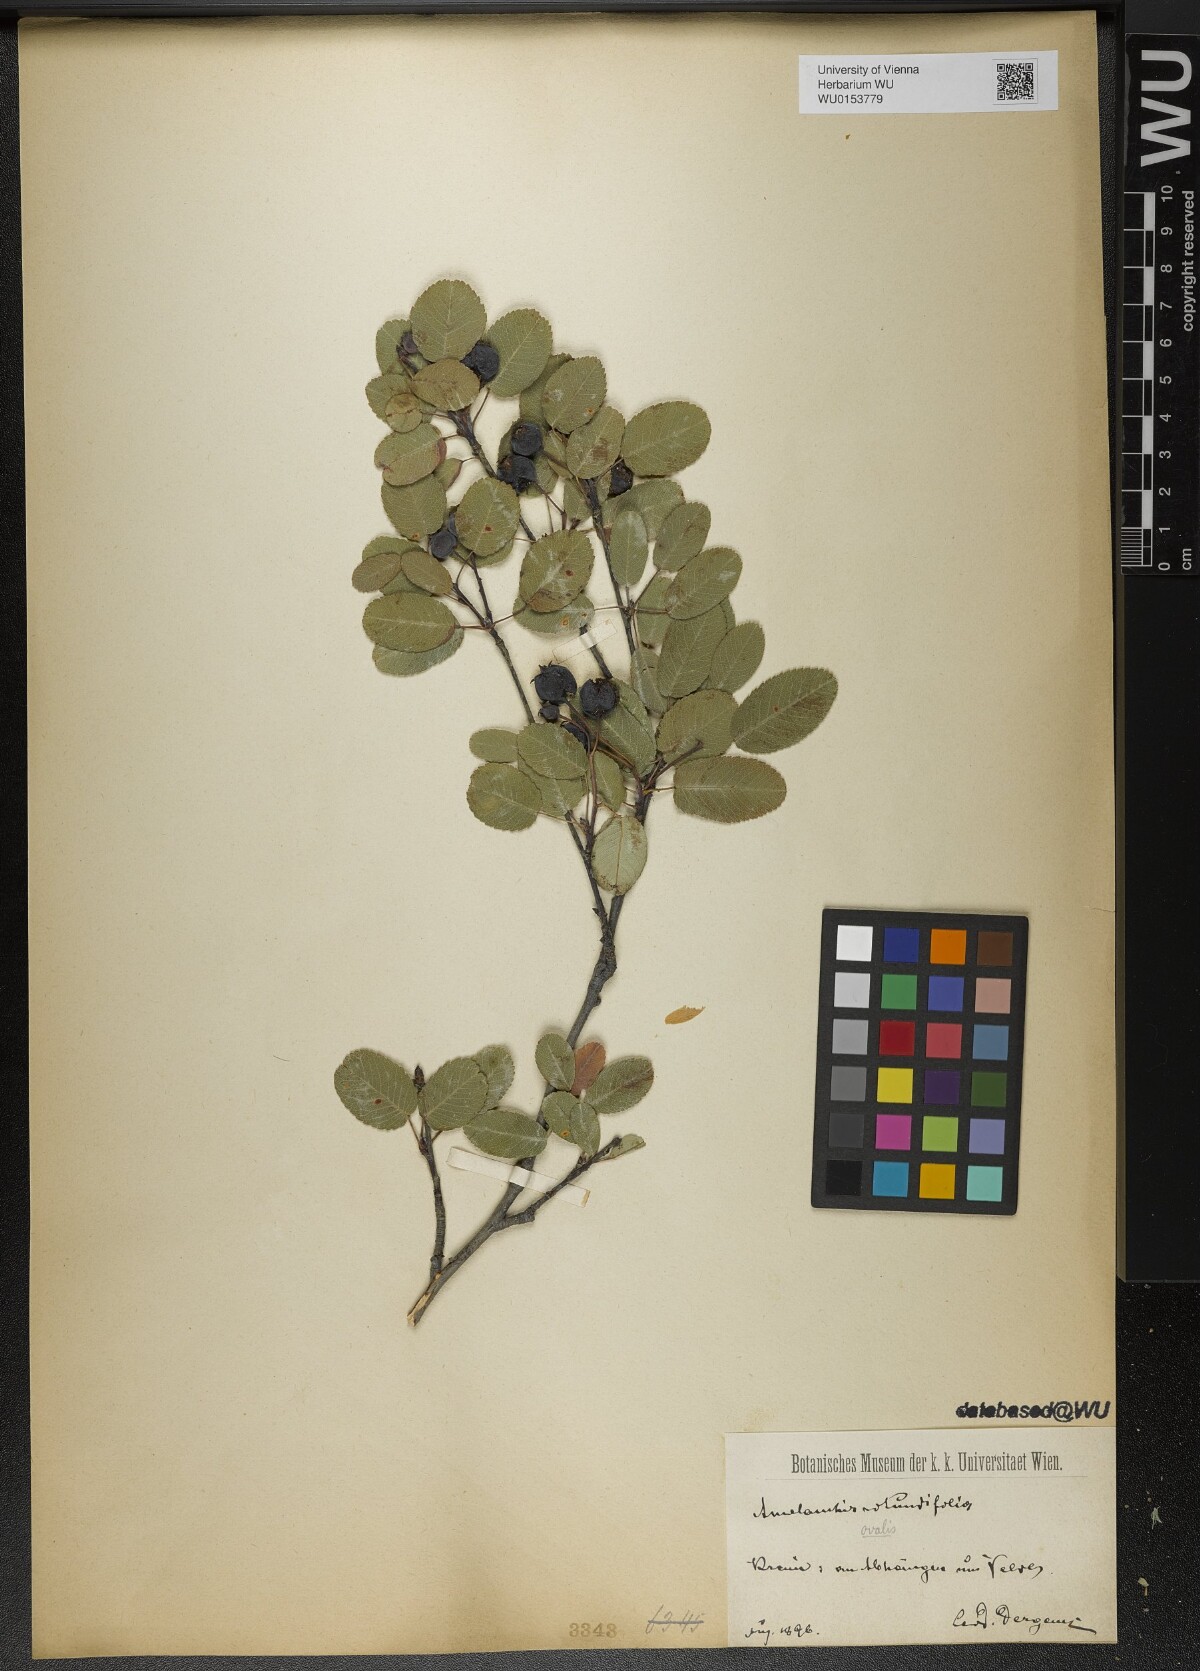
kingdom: Plantae
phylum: Tracheophyta
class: Magnoliopsida
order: Rosales
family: Rosaceae
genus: Amelanchier
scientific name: Amelanchier ovalis
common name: Serviceberry
